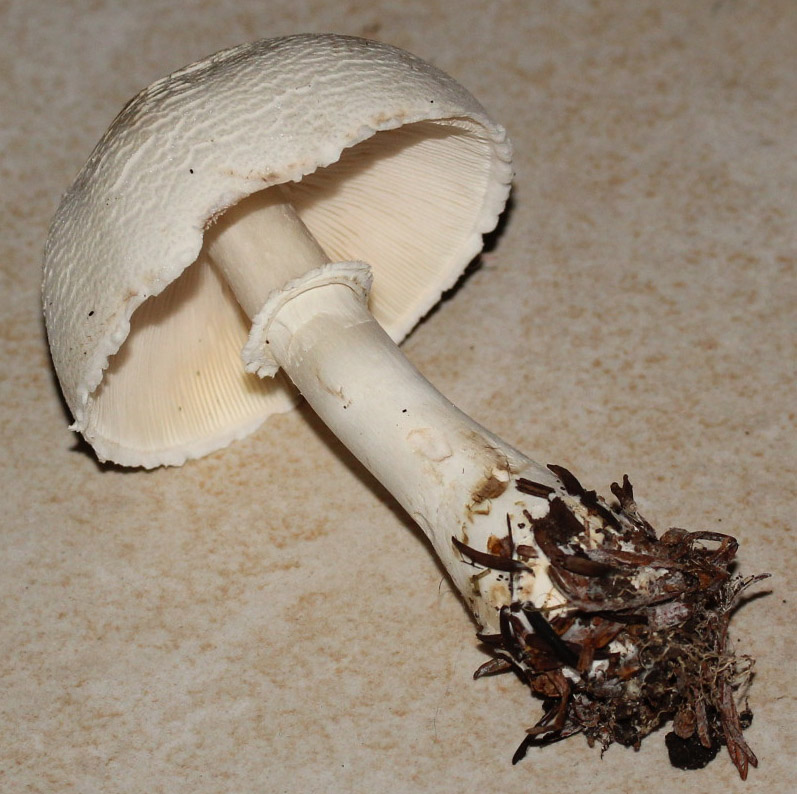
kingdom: Fungi
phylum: Basidiomycota
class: Agaricomycetes
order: Agaricales
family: Agaricaceae
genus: Leucoagaricus
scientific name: Leucoagaricus leucothites
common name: rosabladet silkehat
